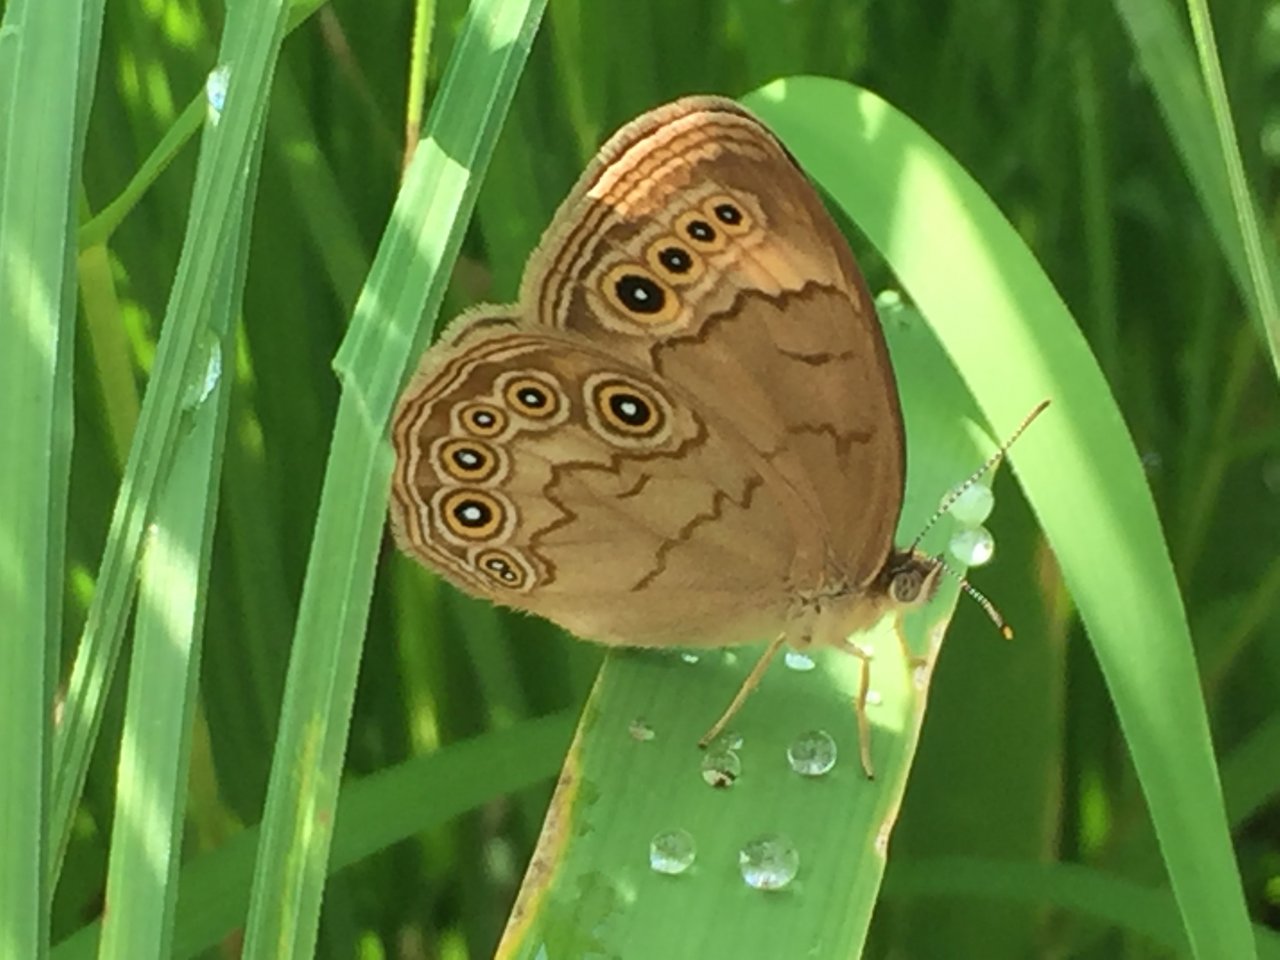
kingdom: Animalia
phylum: Arthropoda
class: Insecta
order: Lepidoptera
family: Nymphalidae
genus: Lethe
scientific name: Lethe eurydice
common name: Eyed Brown
